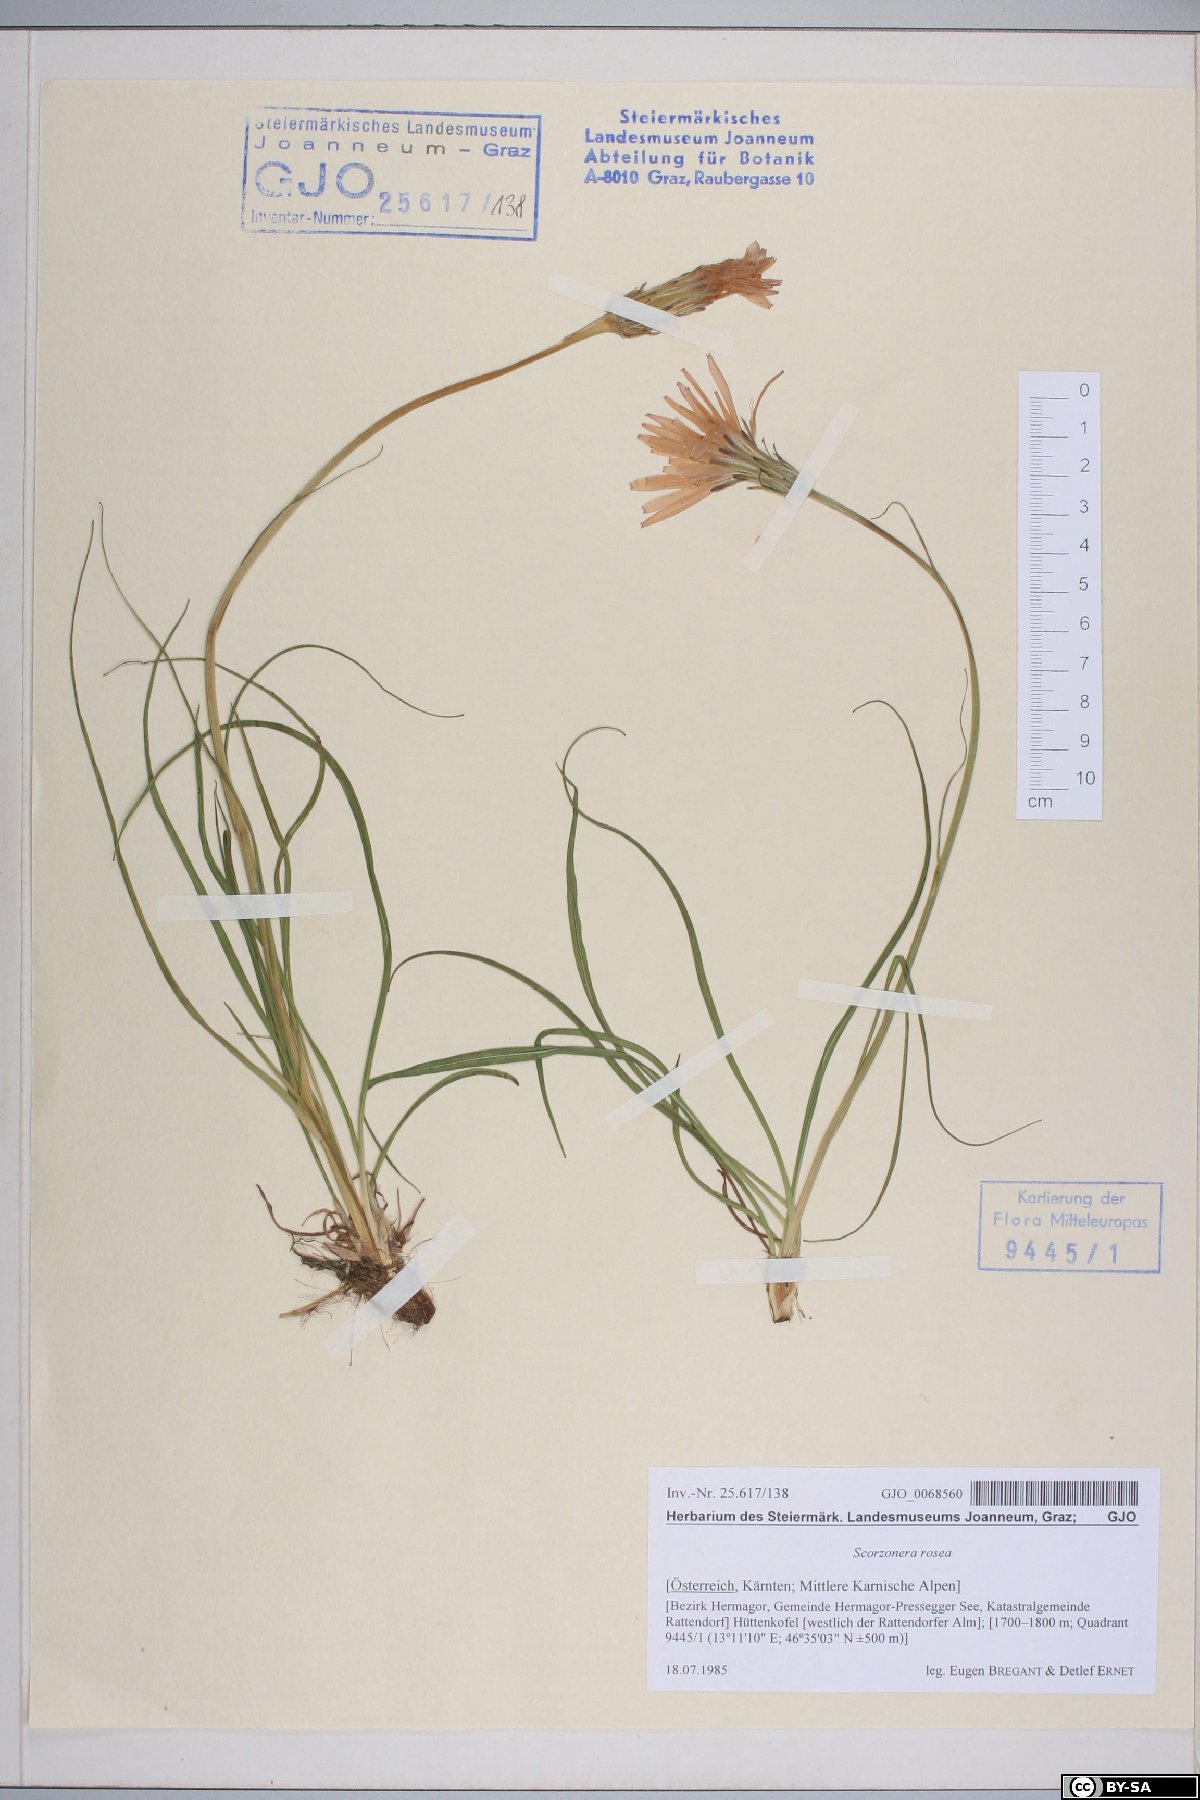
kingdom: Plantae
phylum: Tracheophyta
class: Magnoliopsida
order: Asterales
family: Asteraceae
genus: Scorzonera
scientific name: Scorzonera rosea
